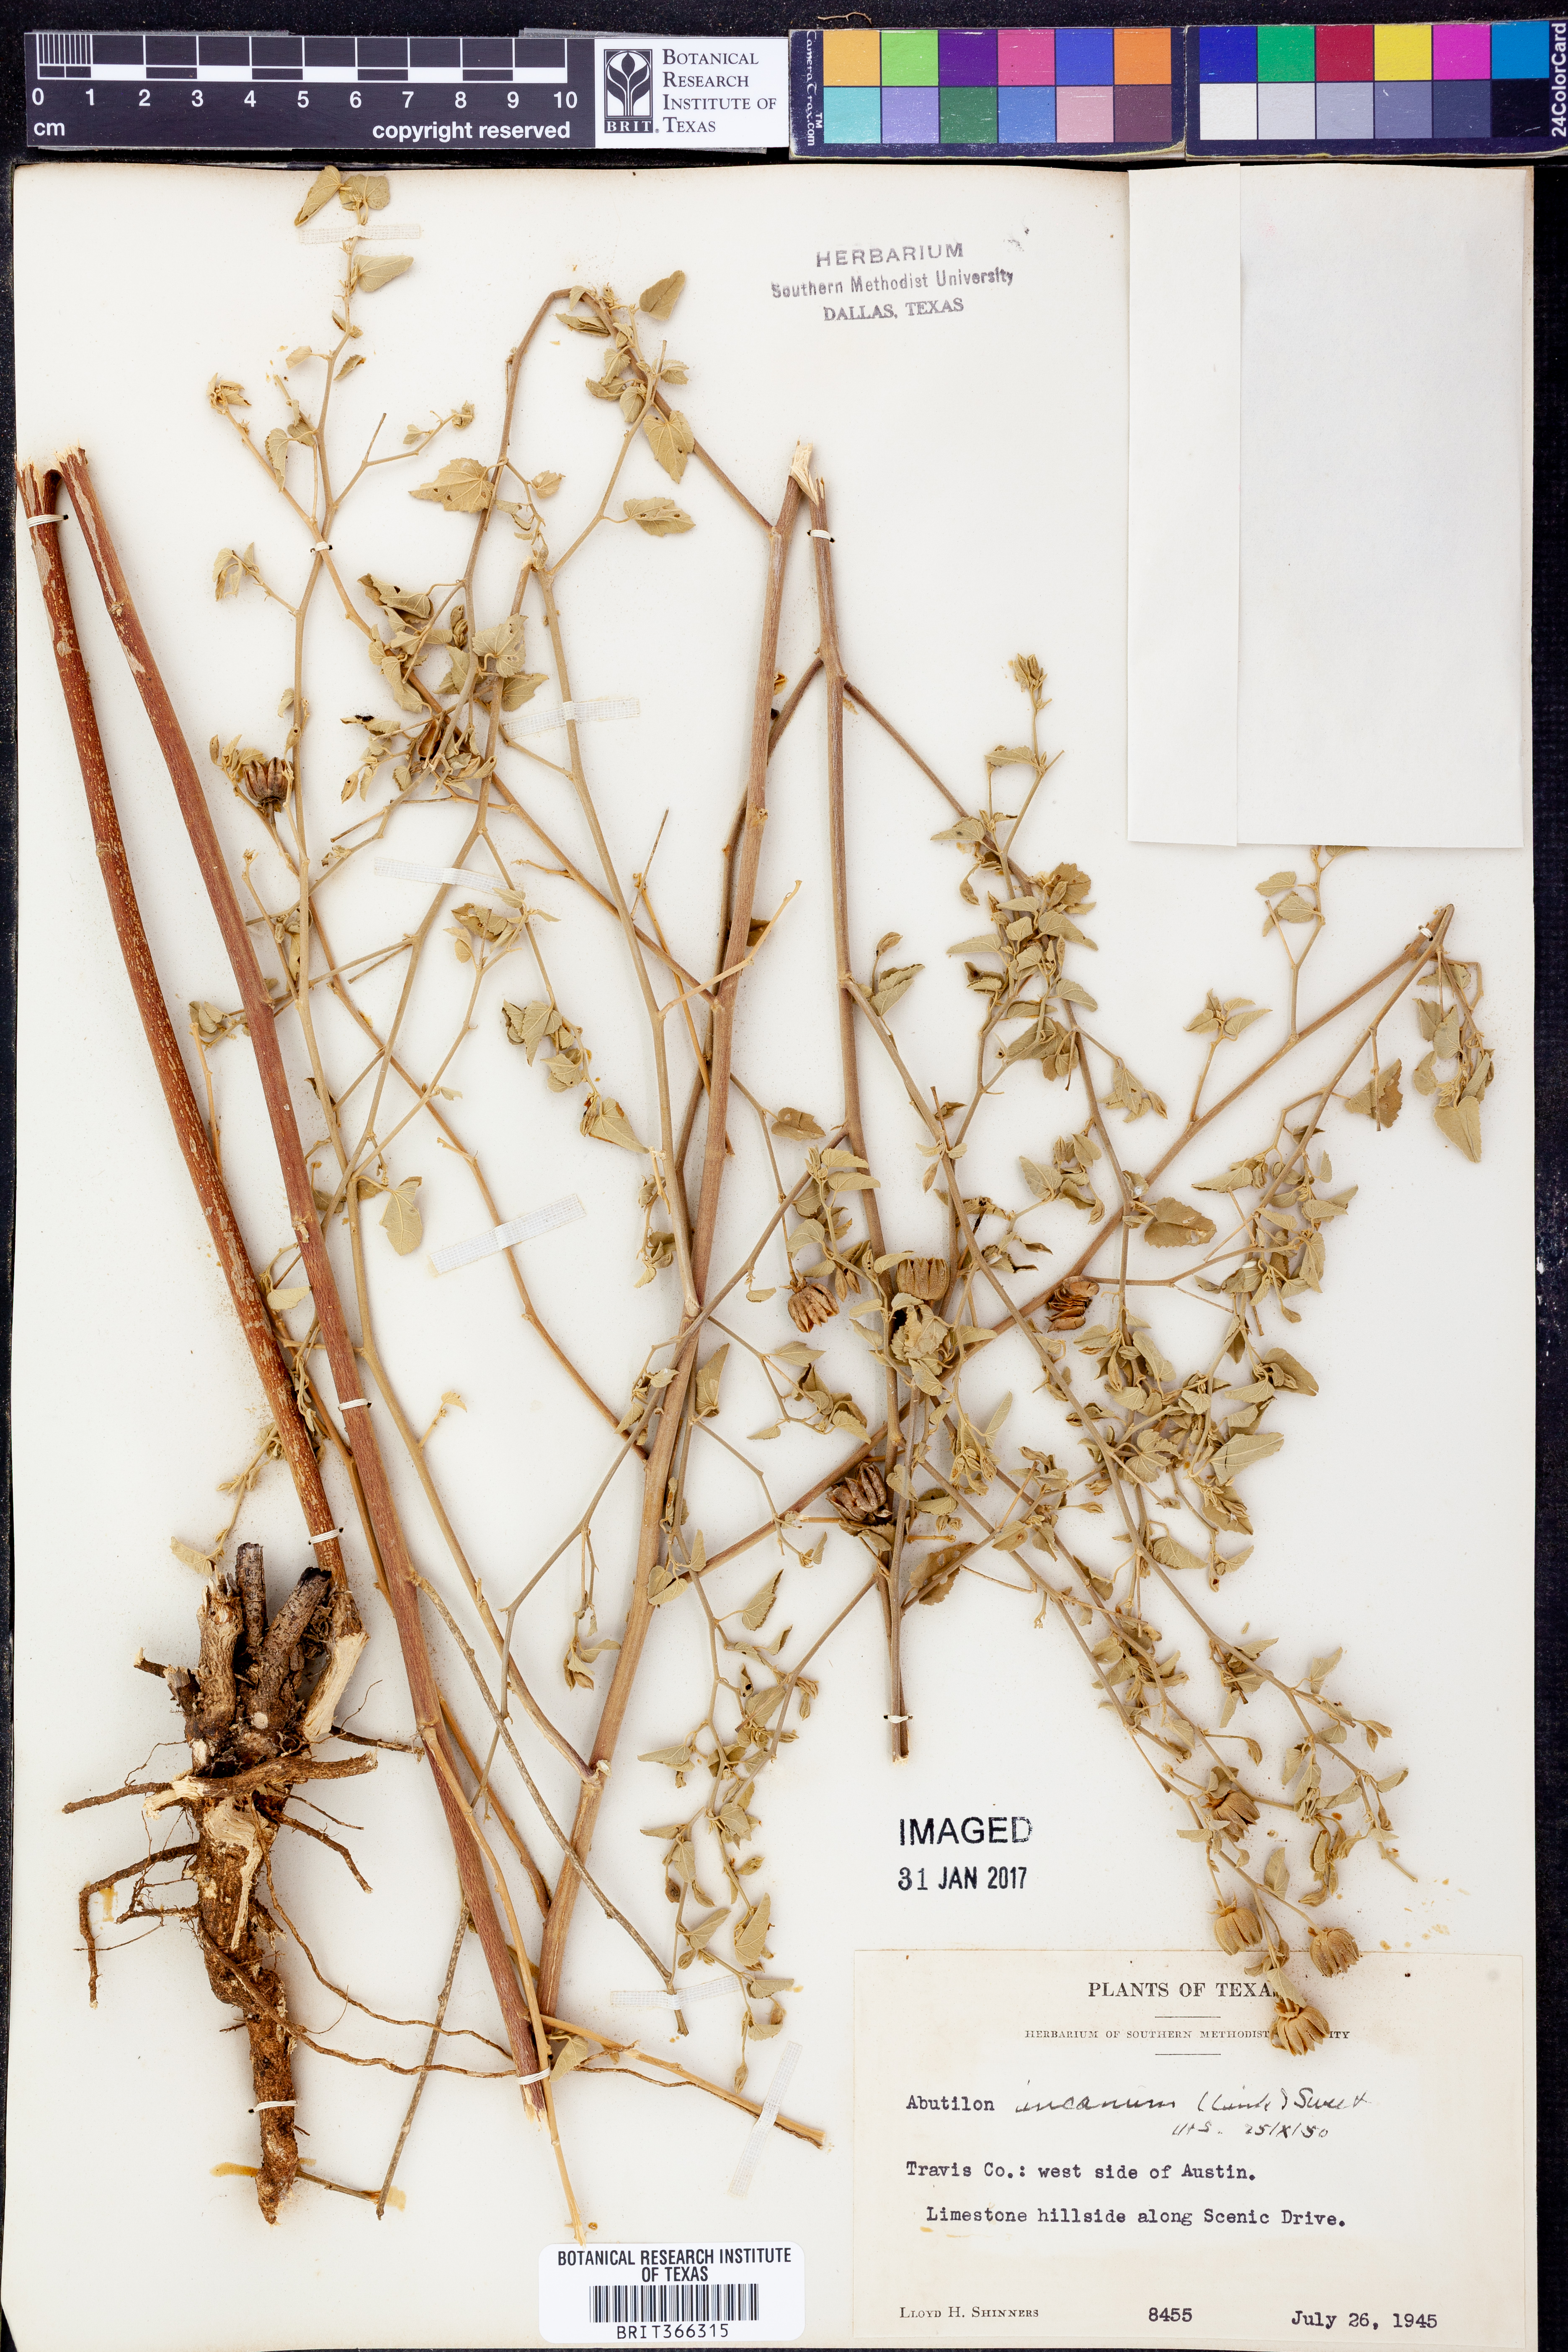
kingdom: Plantae
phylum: Tracheophyta
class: Magnoliopsida
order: Malvales
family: Malvaceae
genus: Abutilon
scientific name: Abutilon incanum
